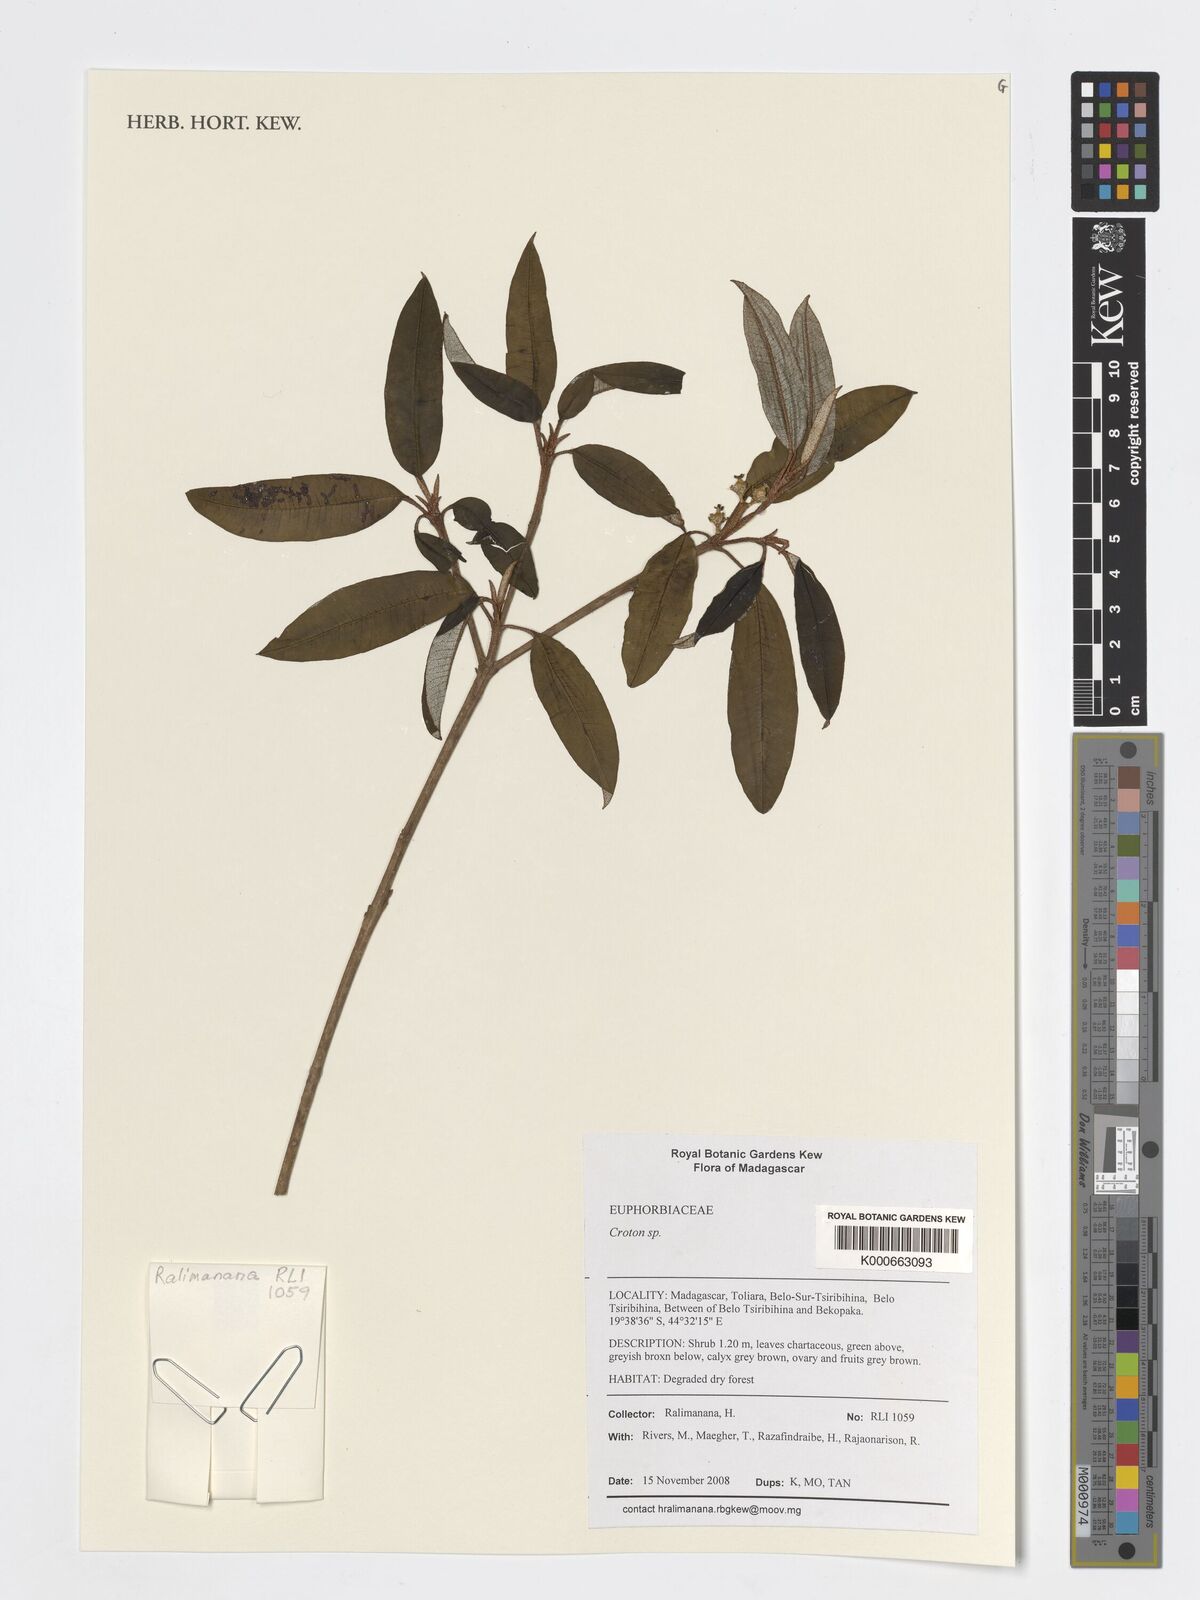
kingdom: Plantae
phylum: Tracheophyta
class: Magnoliopsida
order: Malpighiales
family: Euphorbiaceae
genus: Croton
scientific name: Croton
